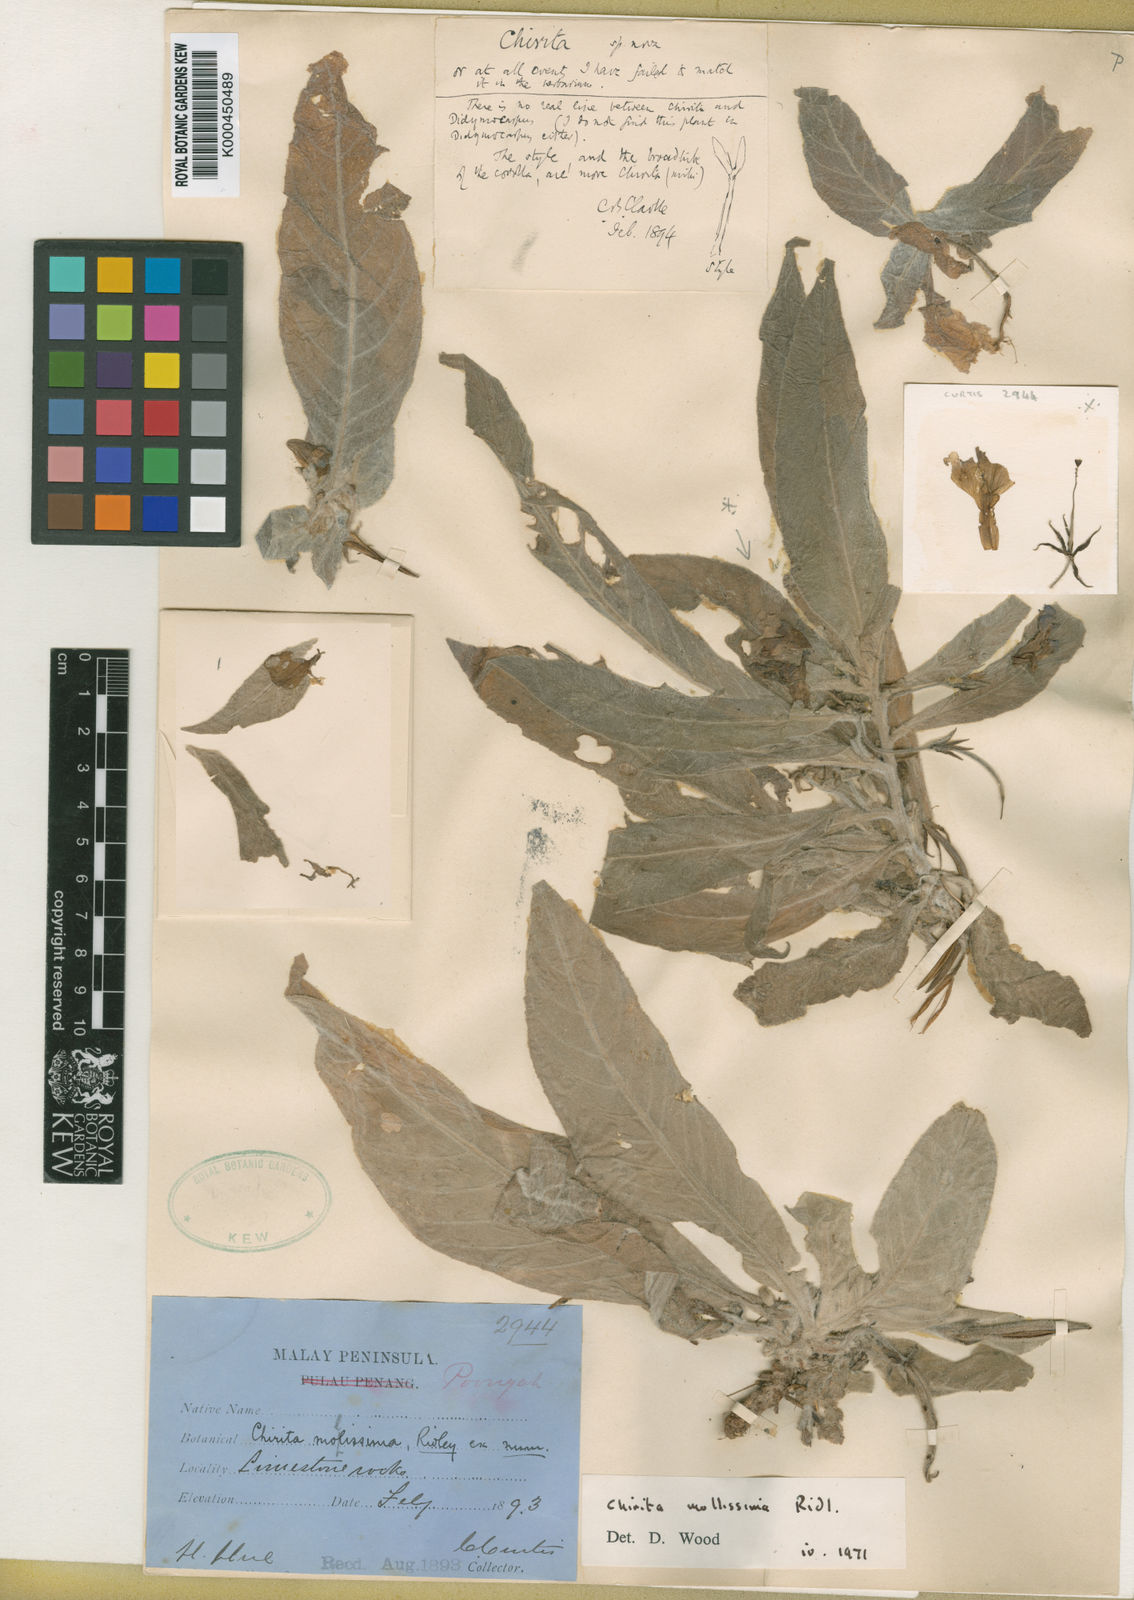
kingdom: Plantae
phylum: Tracheophyta
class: Magnoliopsida
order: Lamiales
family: Gesneriaceae
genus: Microchirita
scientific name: Microchirita sericea
